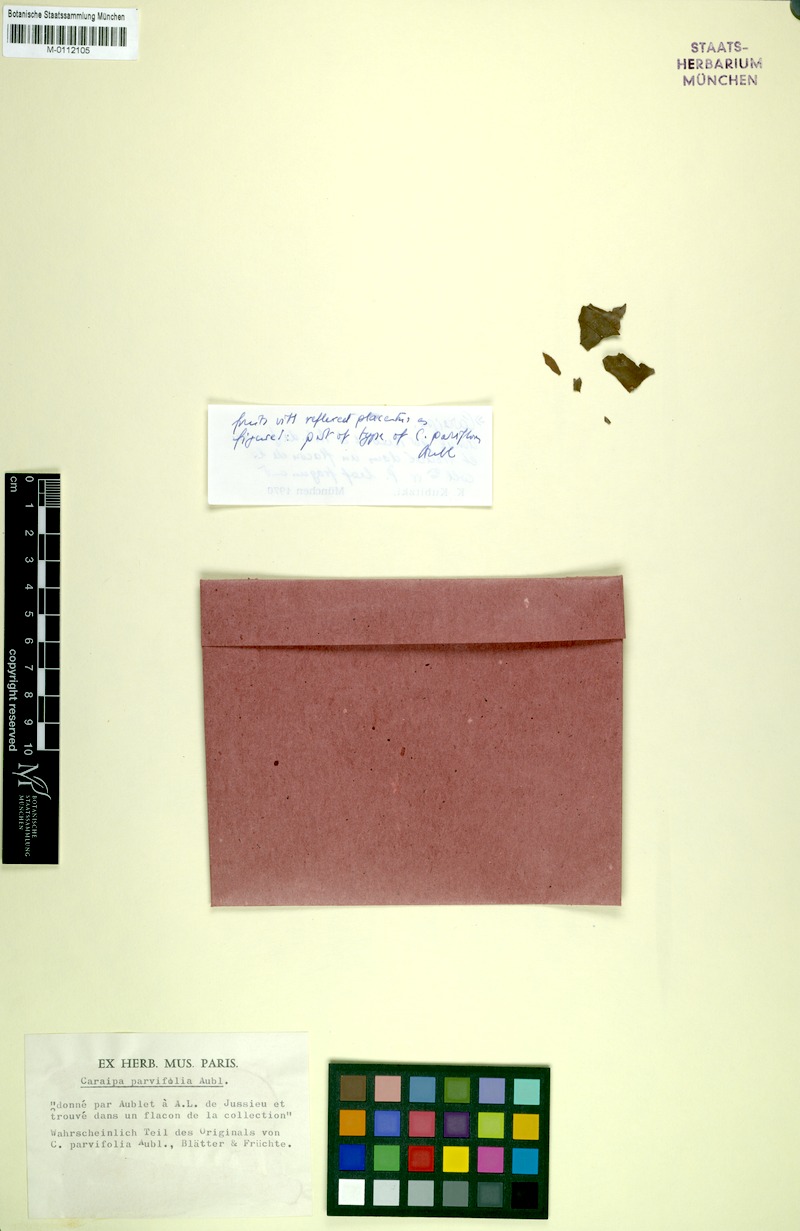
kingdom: Plantae
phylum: Tracheophyta
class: Magnoliopsida
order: Malpighiales
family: Calophyllaceae
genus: Caraipa
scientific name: Caraipa parvifolia
